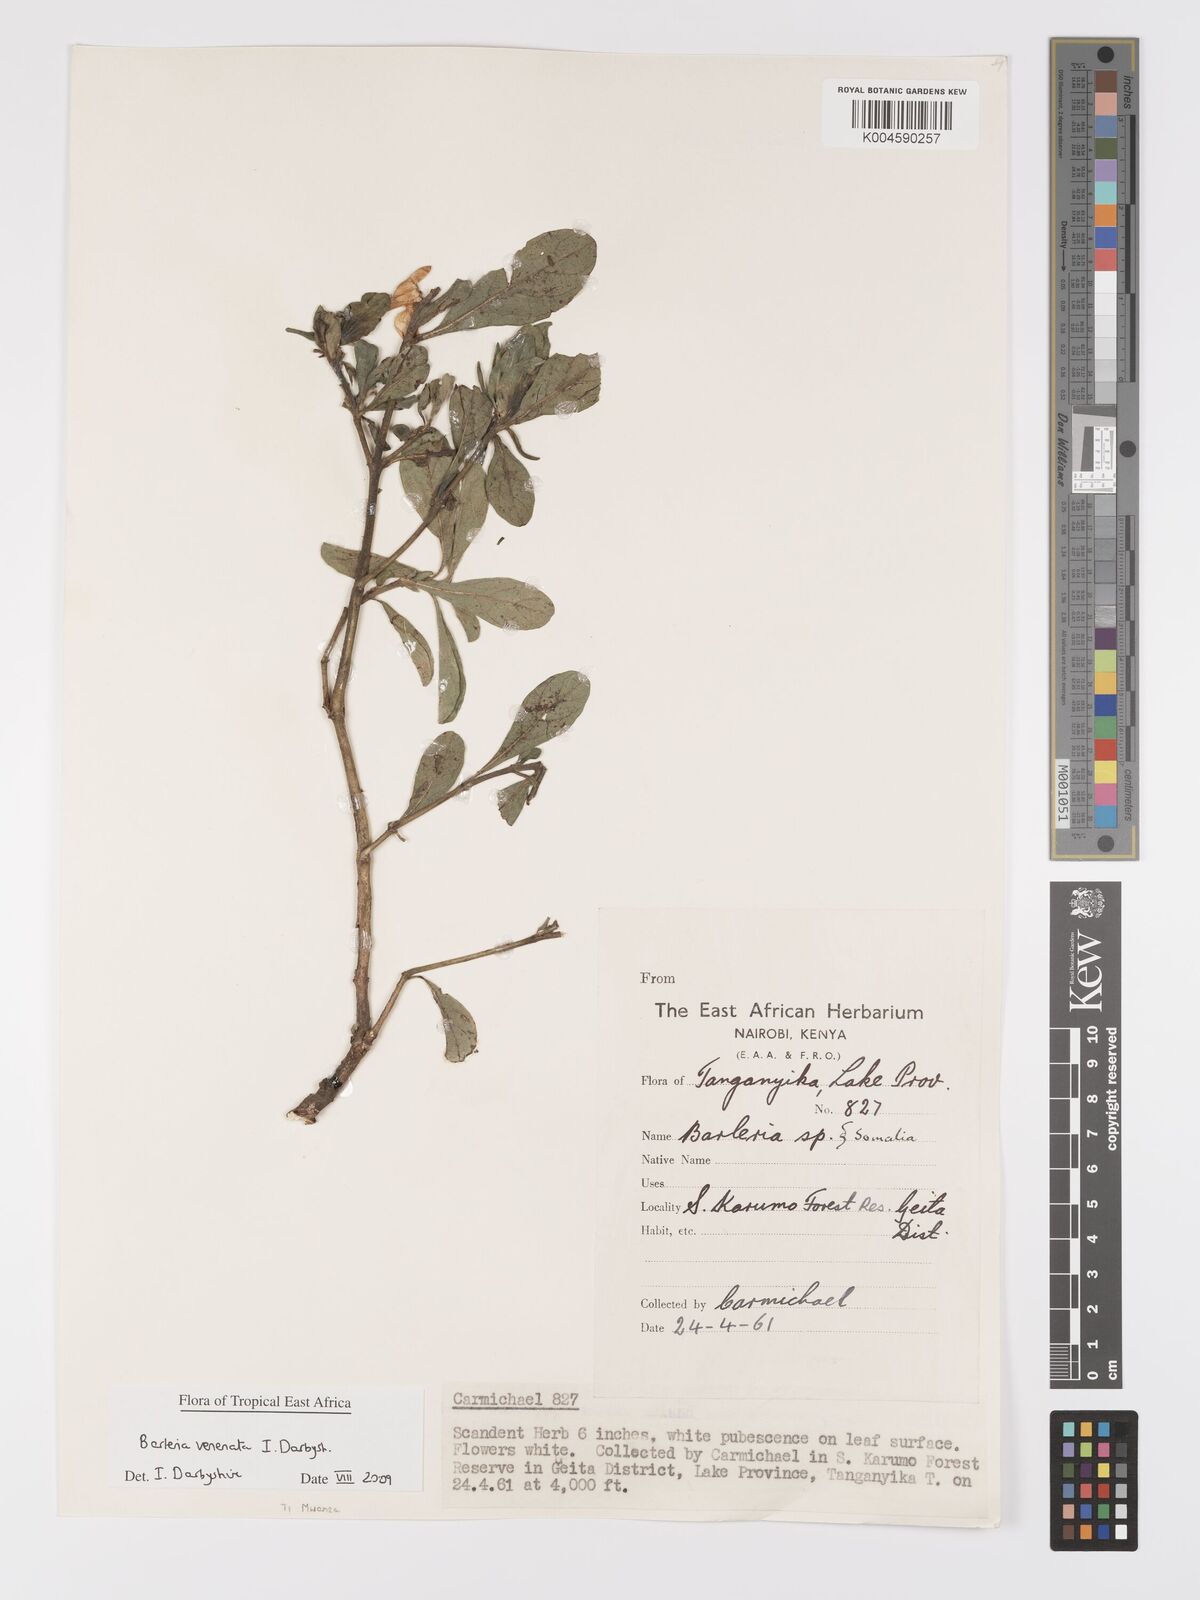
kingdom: Plantae
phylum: Tracheophyta
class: Magnoliopsida
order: Lamiales
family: Acanthaceae
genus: Barleria
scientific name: Barleria venenata
